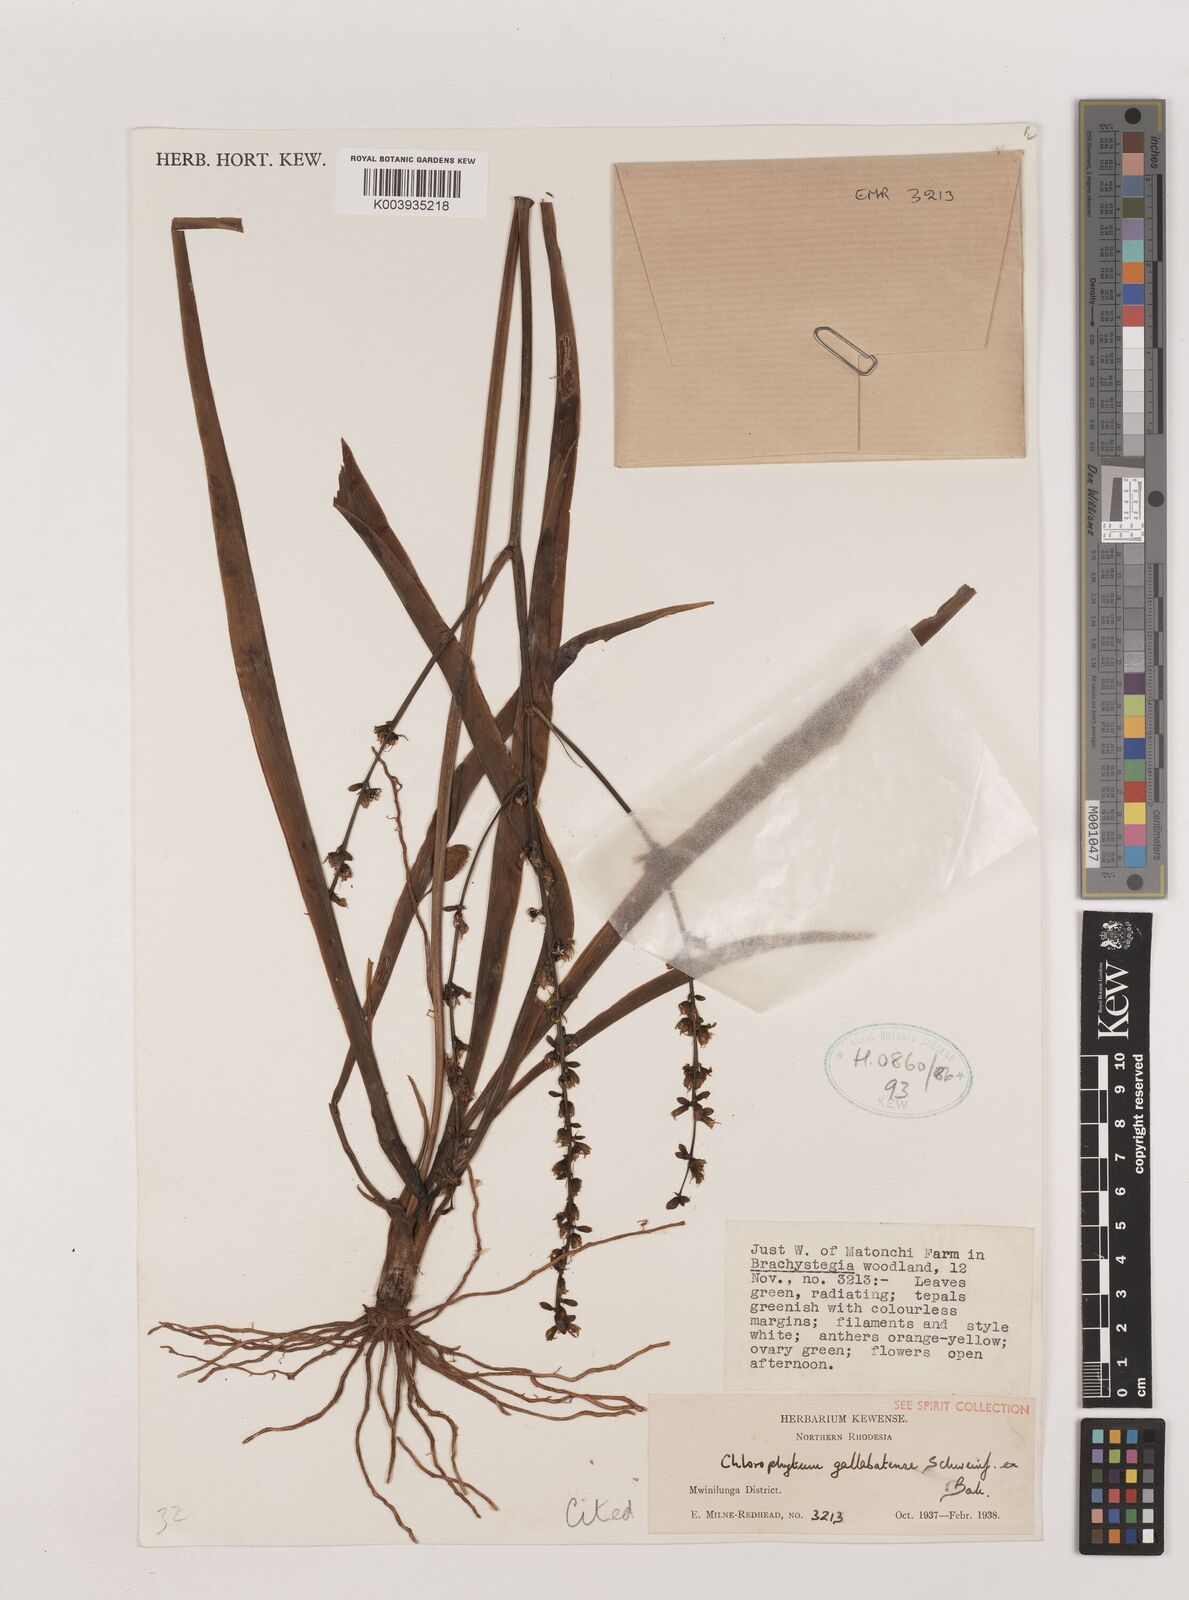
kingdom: Plantae
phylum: Tracheophyta
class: Liliopsida
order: Asparagales
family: Asparagaceae
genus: Chlorophytum
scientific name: Chlorophytum gallabatense
